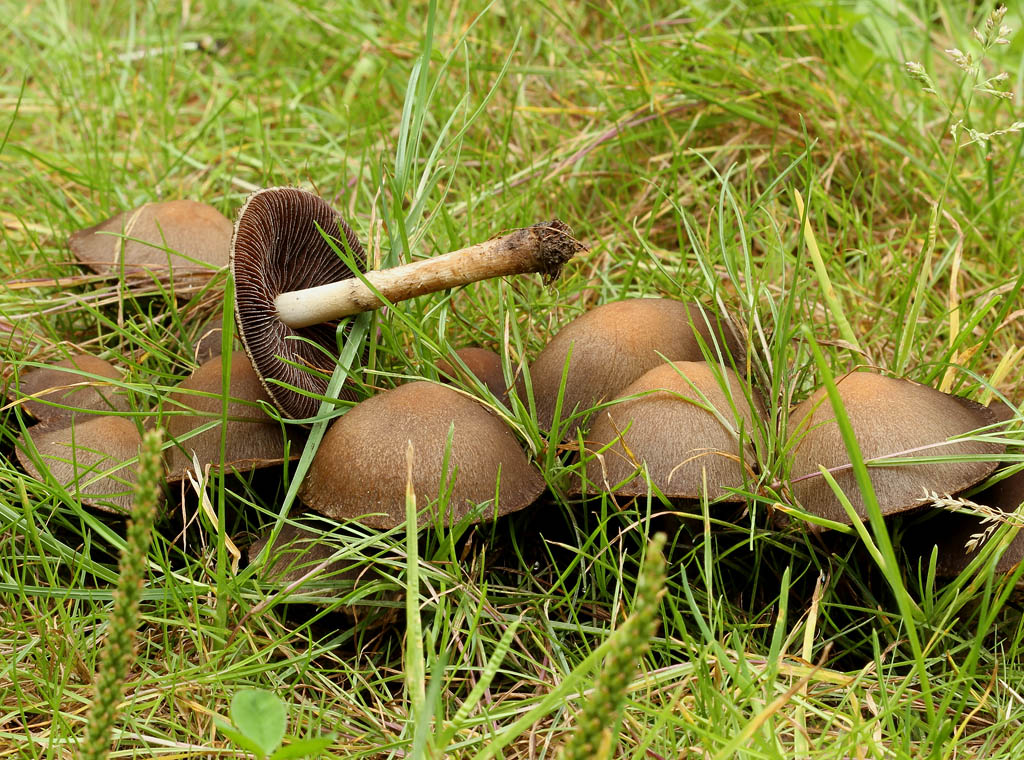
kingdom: Fungi
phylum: Basidiomycota
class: Agaricomycetes
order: Agaricales
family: Psathyrellaceae
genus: Lacrymaria
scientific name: Lacrymaria lacrymabunda
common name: grædende mørkhat
